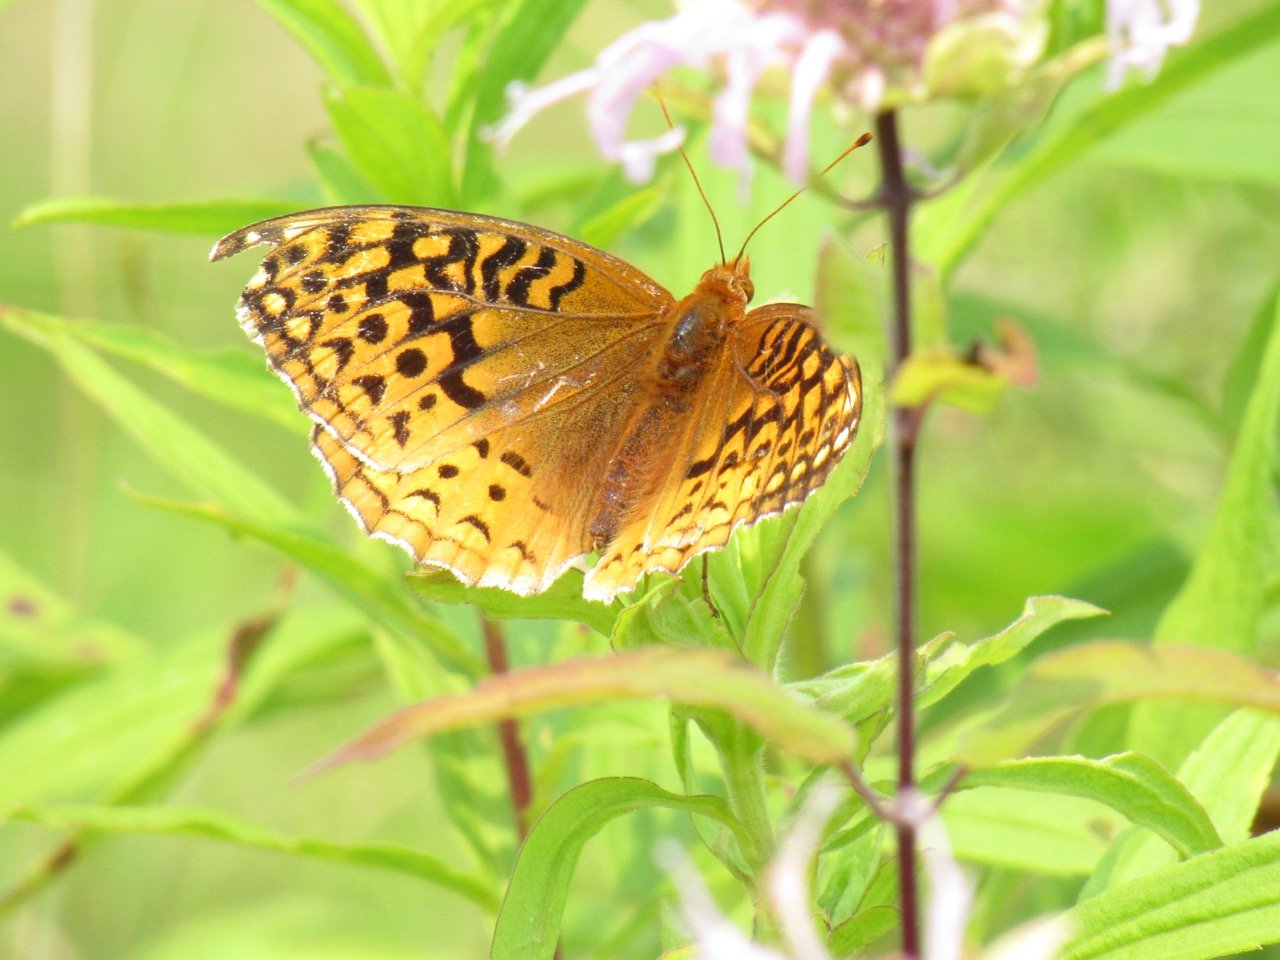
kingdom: Animalia
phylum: Arthropoda
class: Insecta
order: Lepidoptera
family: Nymphalidae
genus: Speyeria
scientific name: Speyeria cybele
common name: Great Spangled Fritillary
